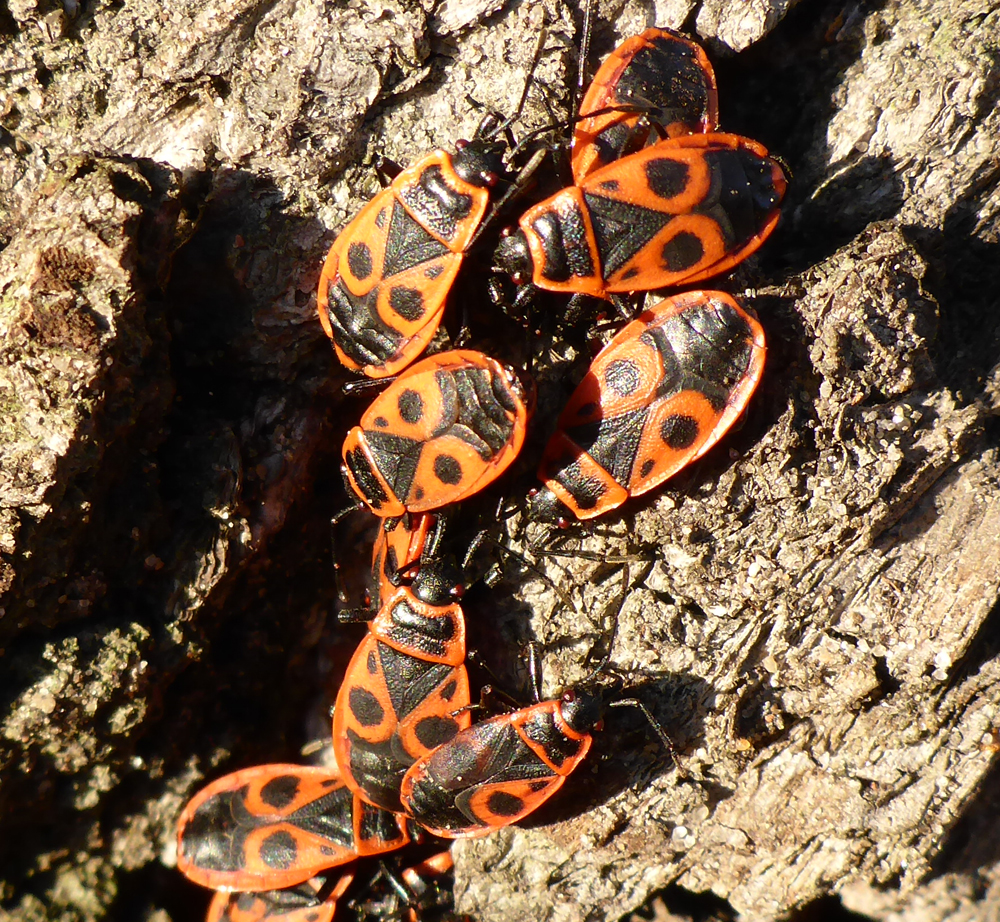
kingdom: Animalia
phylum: Arthropoda
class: Insecta
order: Hemiptera
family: Pyrrhocoridae
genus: Pyrrhocoris
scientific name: Pyrrhocoris
